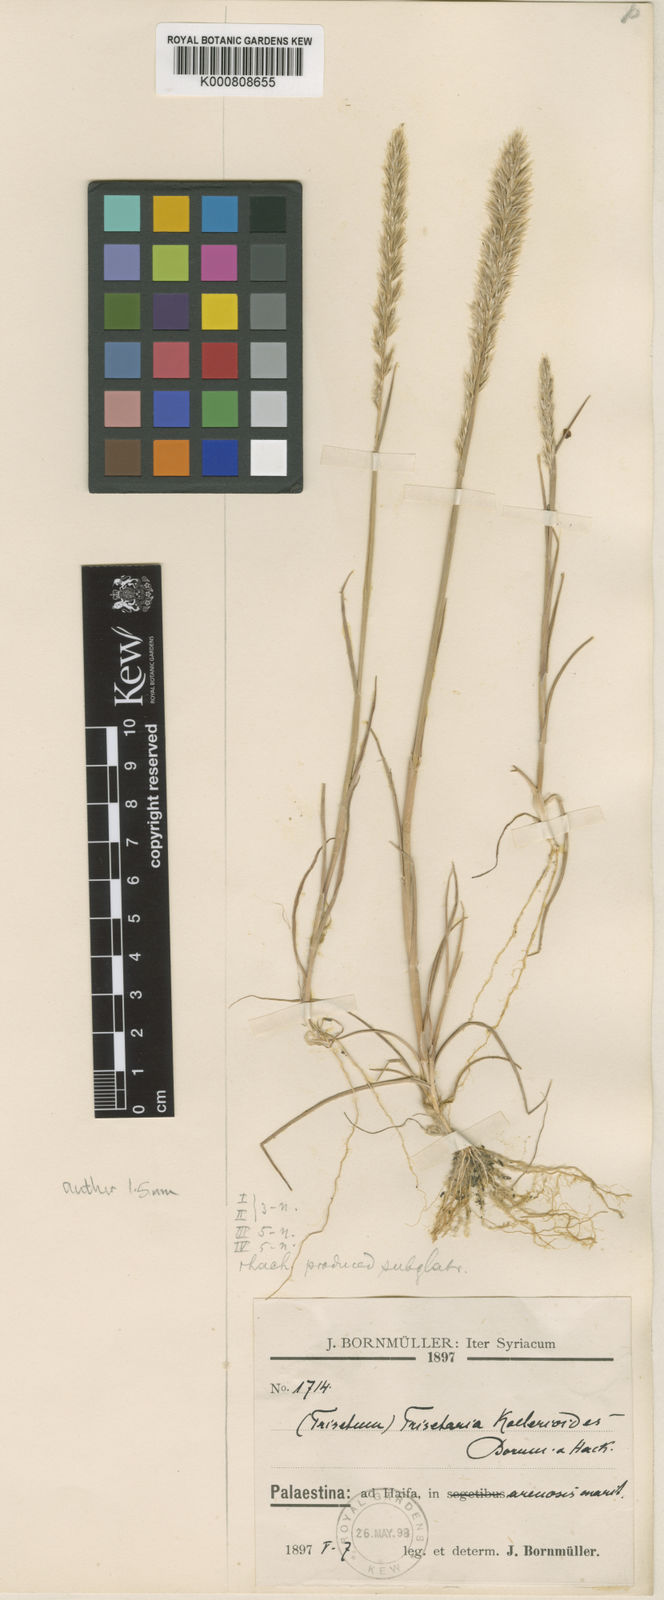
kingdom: Plantae
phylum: Tracheophyta
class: Liliopsida
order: Poales
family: Poaceae
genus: Trisetaria
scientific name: Trisetaria koelerioides
